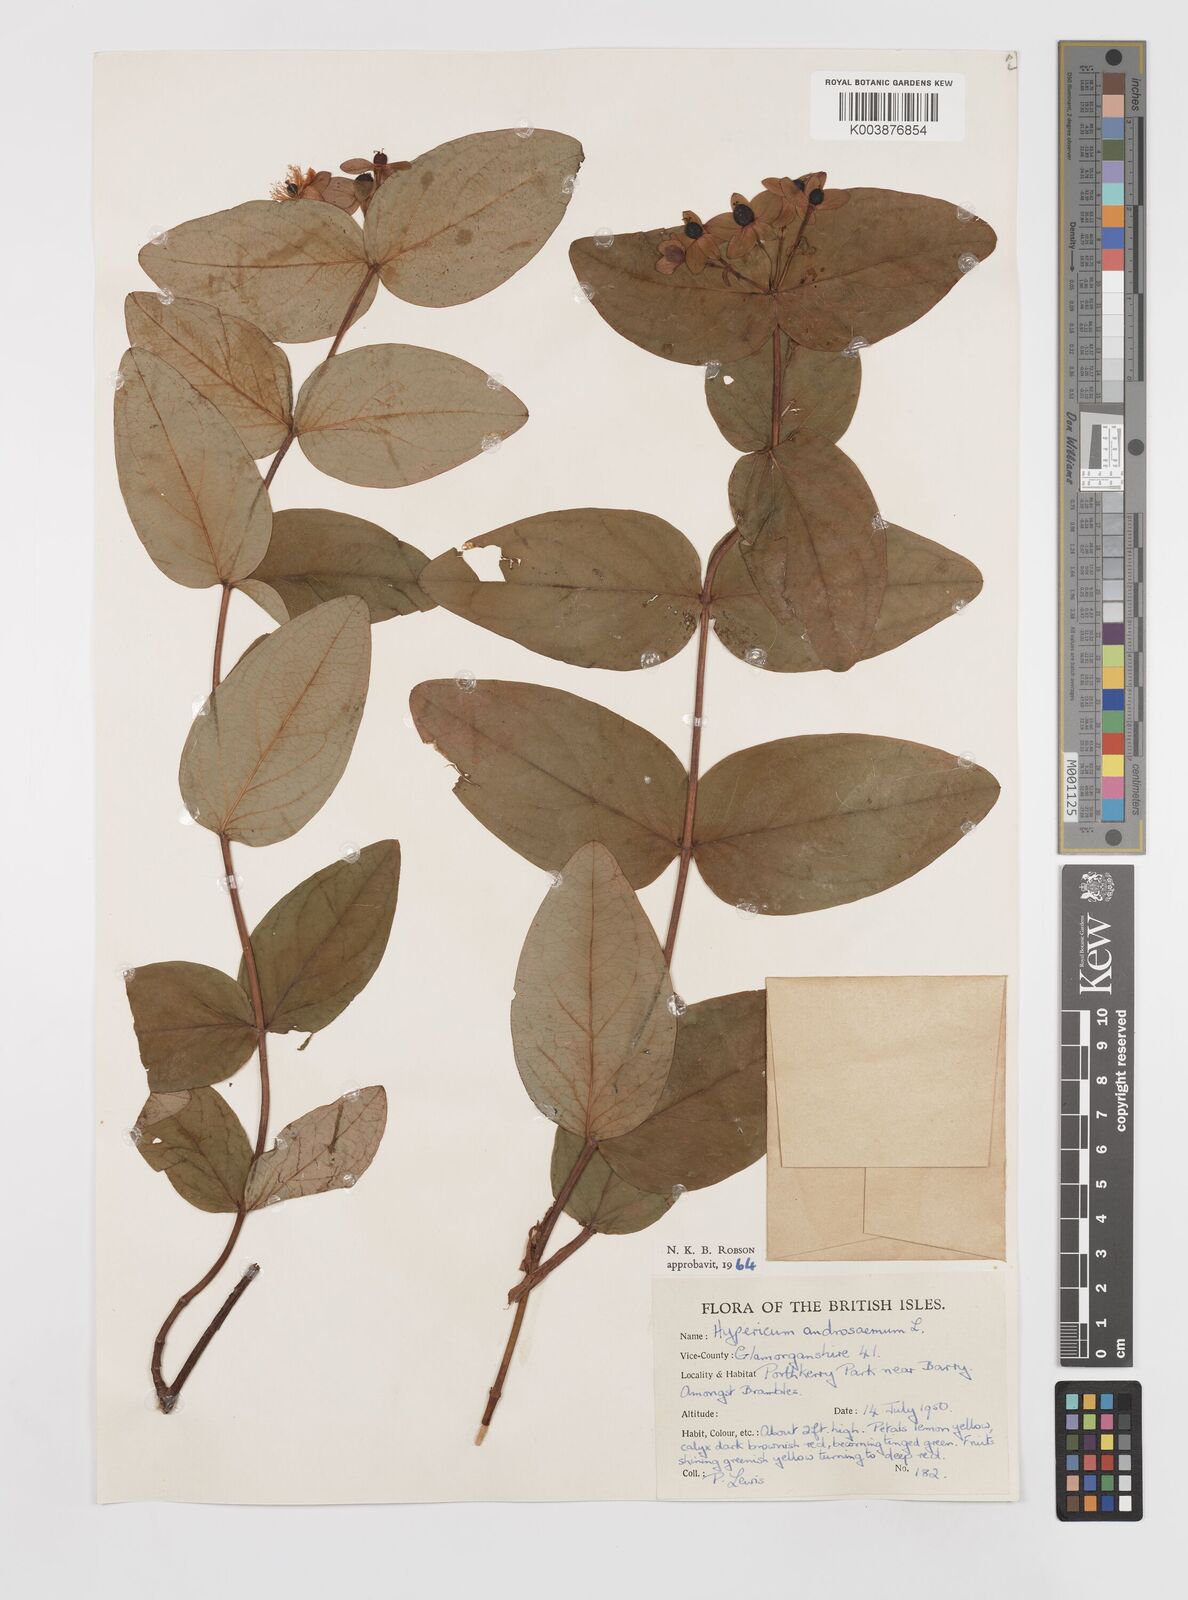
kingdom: Plantae
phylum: Tracheophyta
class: Magnoliopsida
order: Malpighiales
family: Hypericaceae
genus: Hypericum
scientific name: Hypericum androsaemum
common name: Sweet-amber
